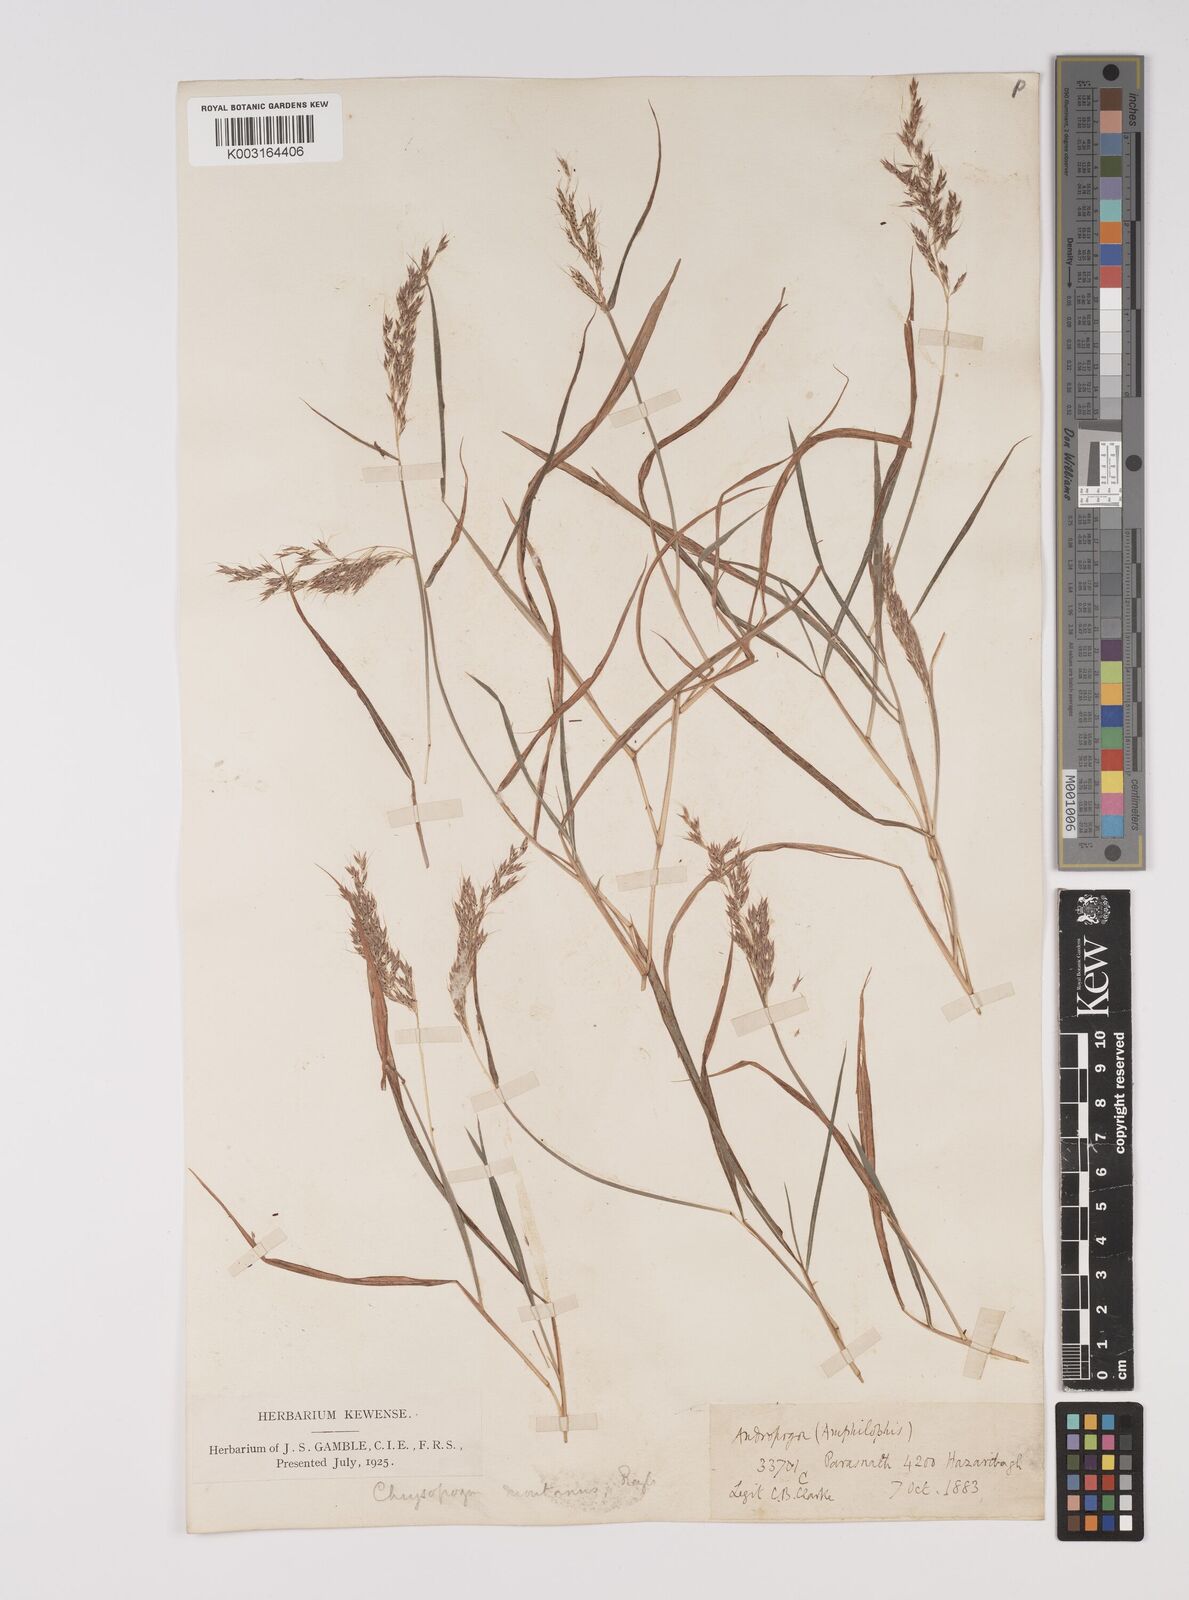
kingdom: Plantae
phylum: Tracheophyta
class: Liliopsida
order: Poales
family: Poaceae
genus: Capillipedium
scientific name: Capillipedium assimile
